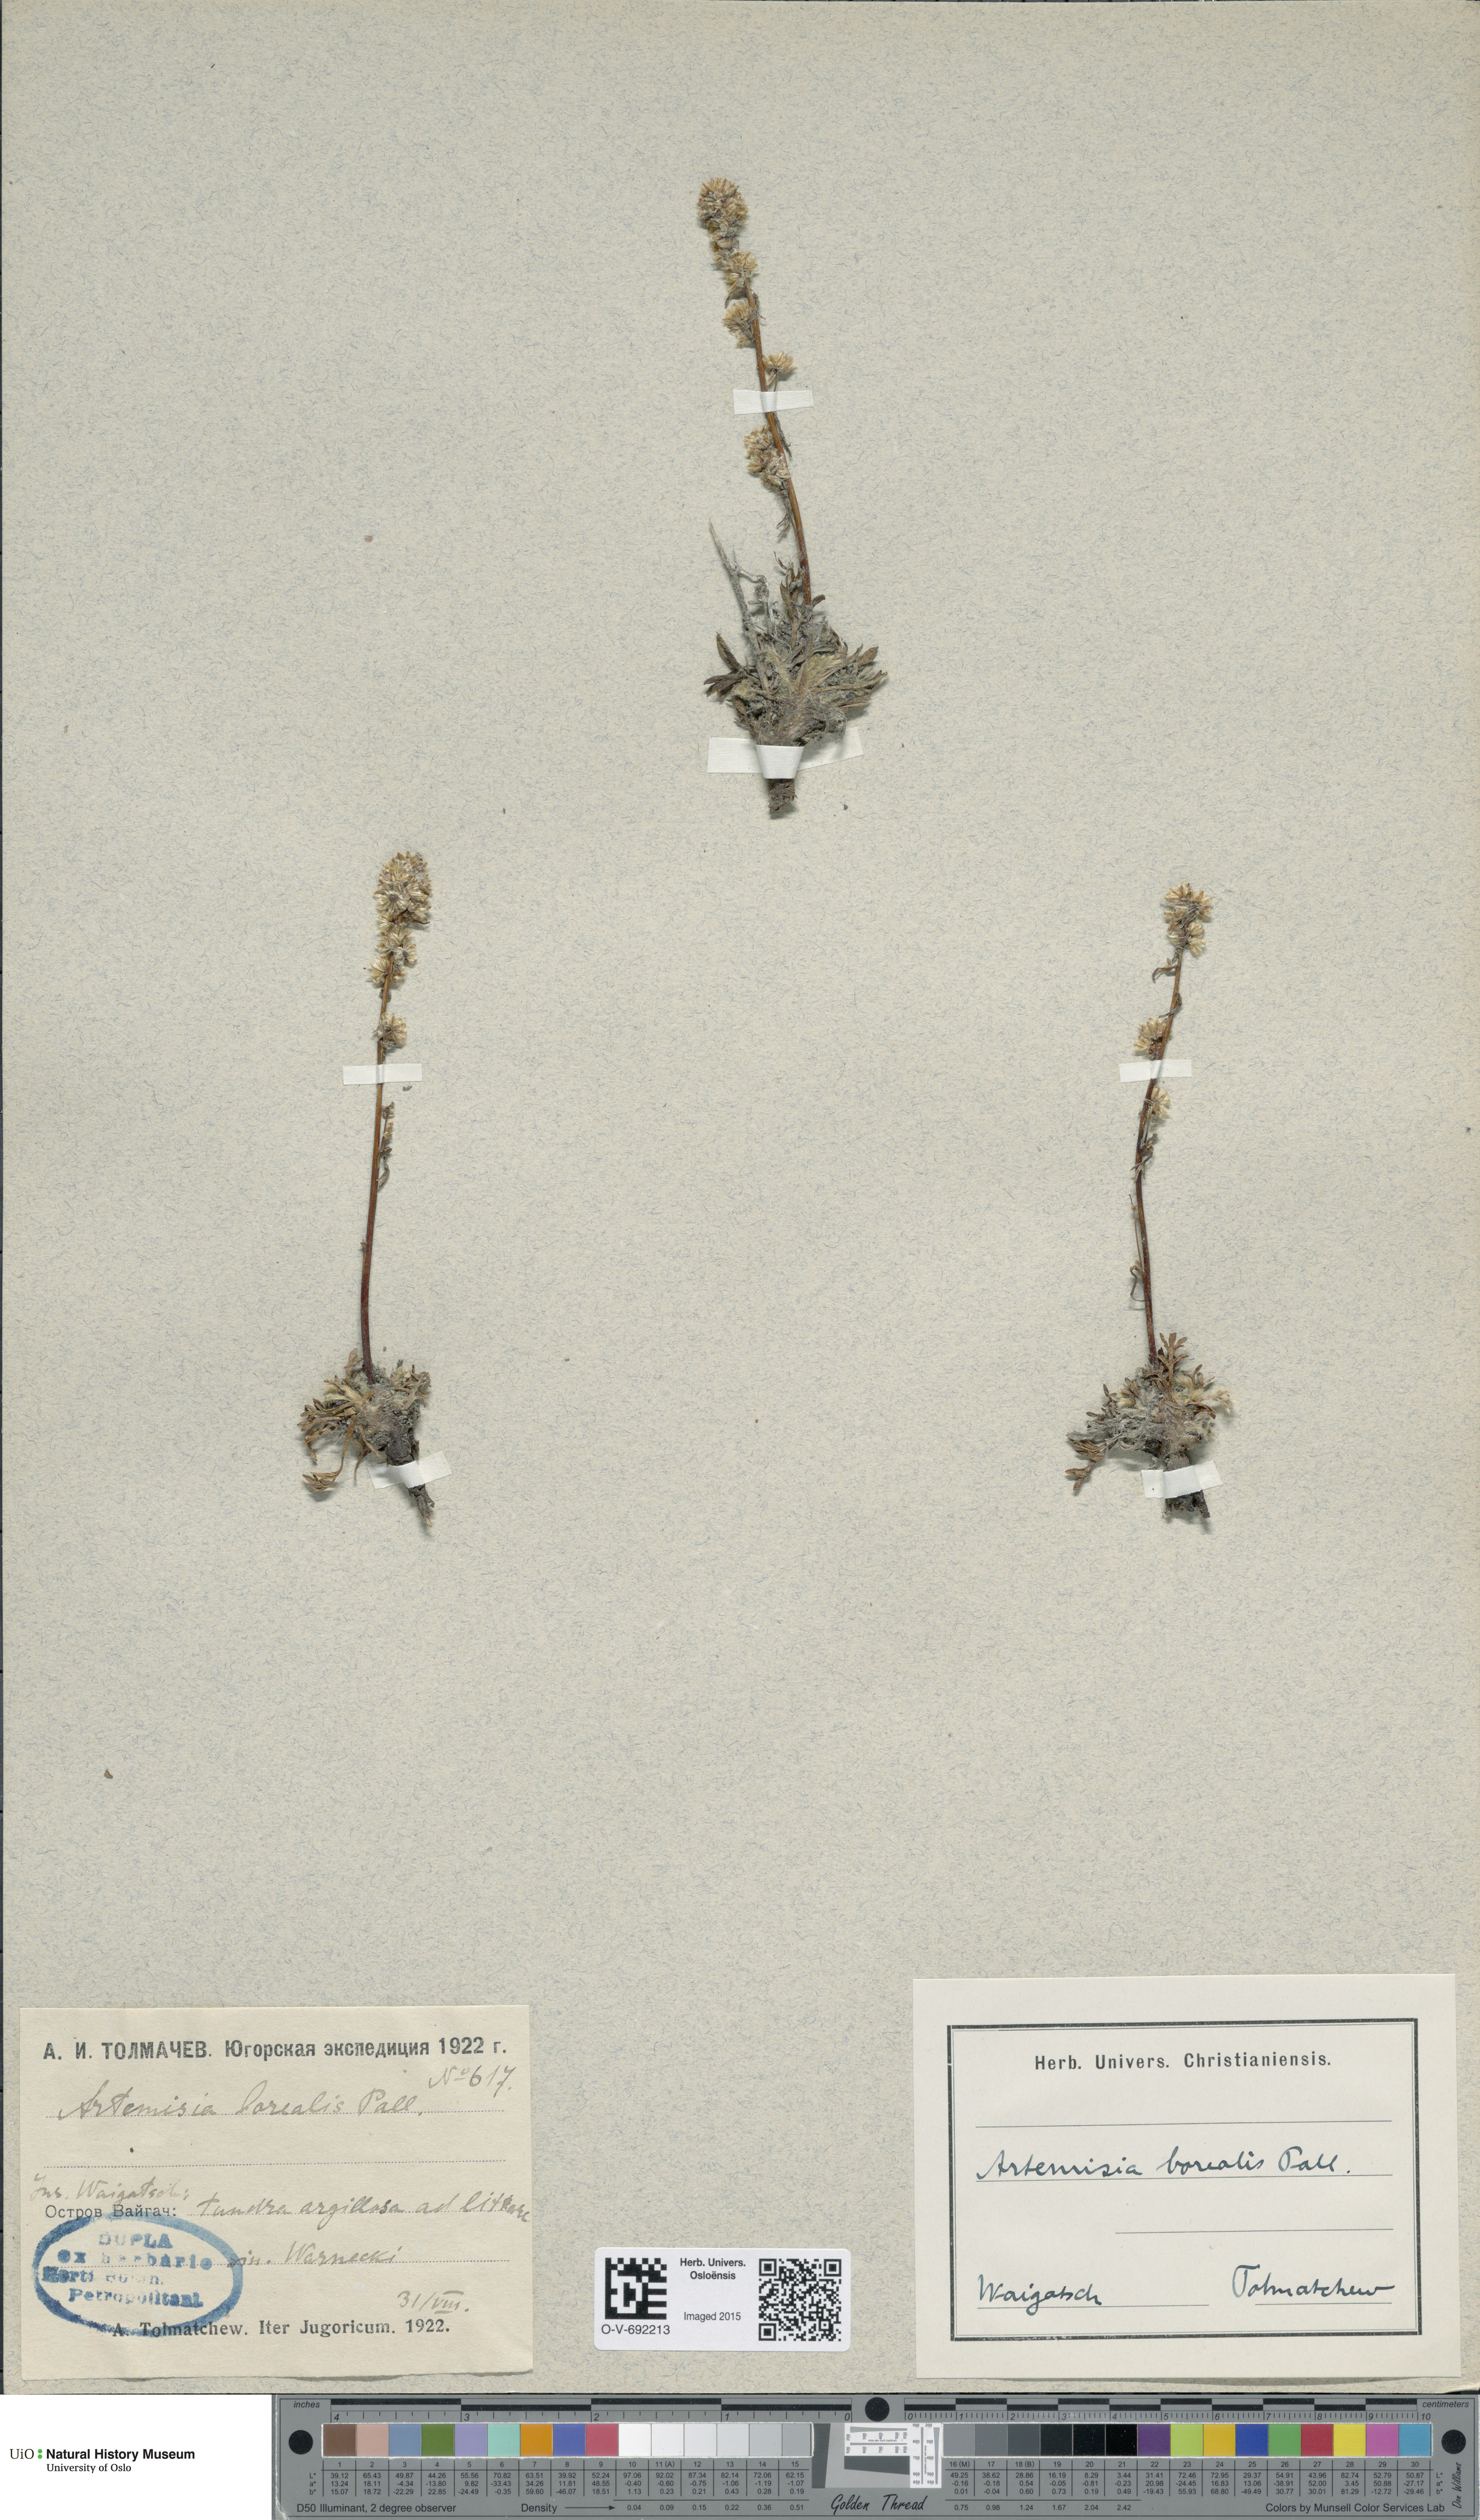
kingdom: Plantae
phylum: Tracheophyta
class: Magnoliopsida
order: Asterales
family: Asteraceae
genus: Artemisia
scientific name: Artemisia borealis
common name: Boreal sage
